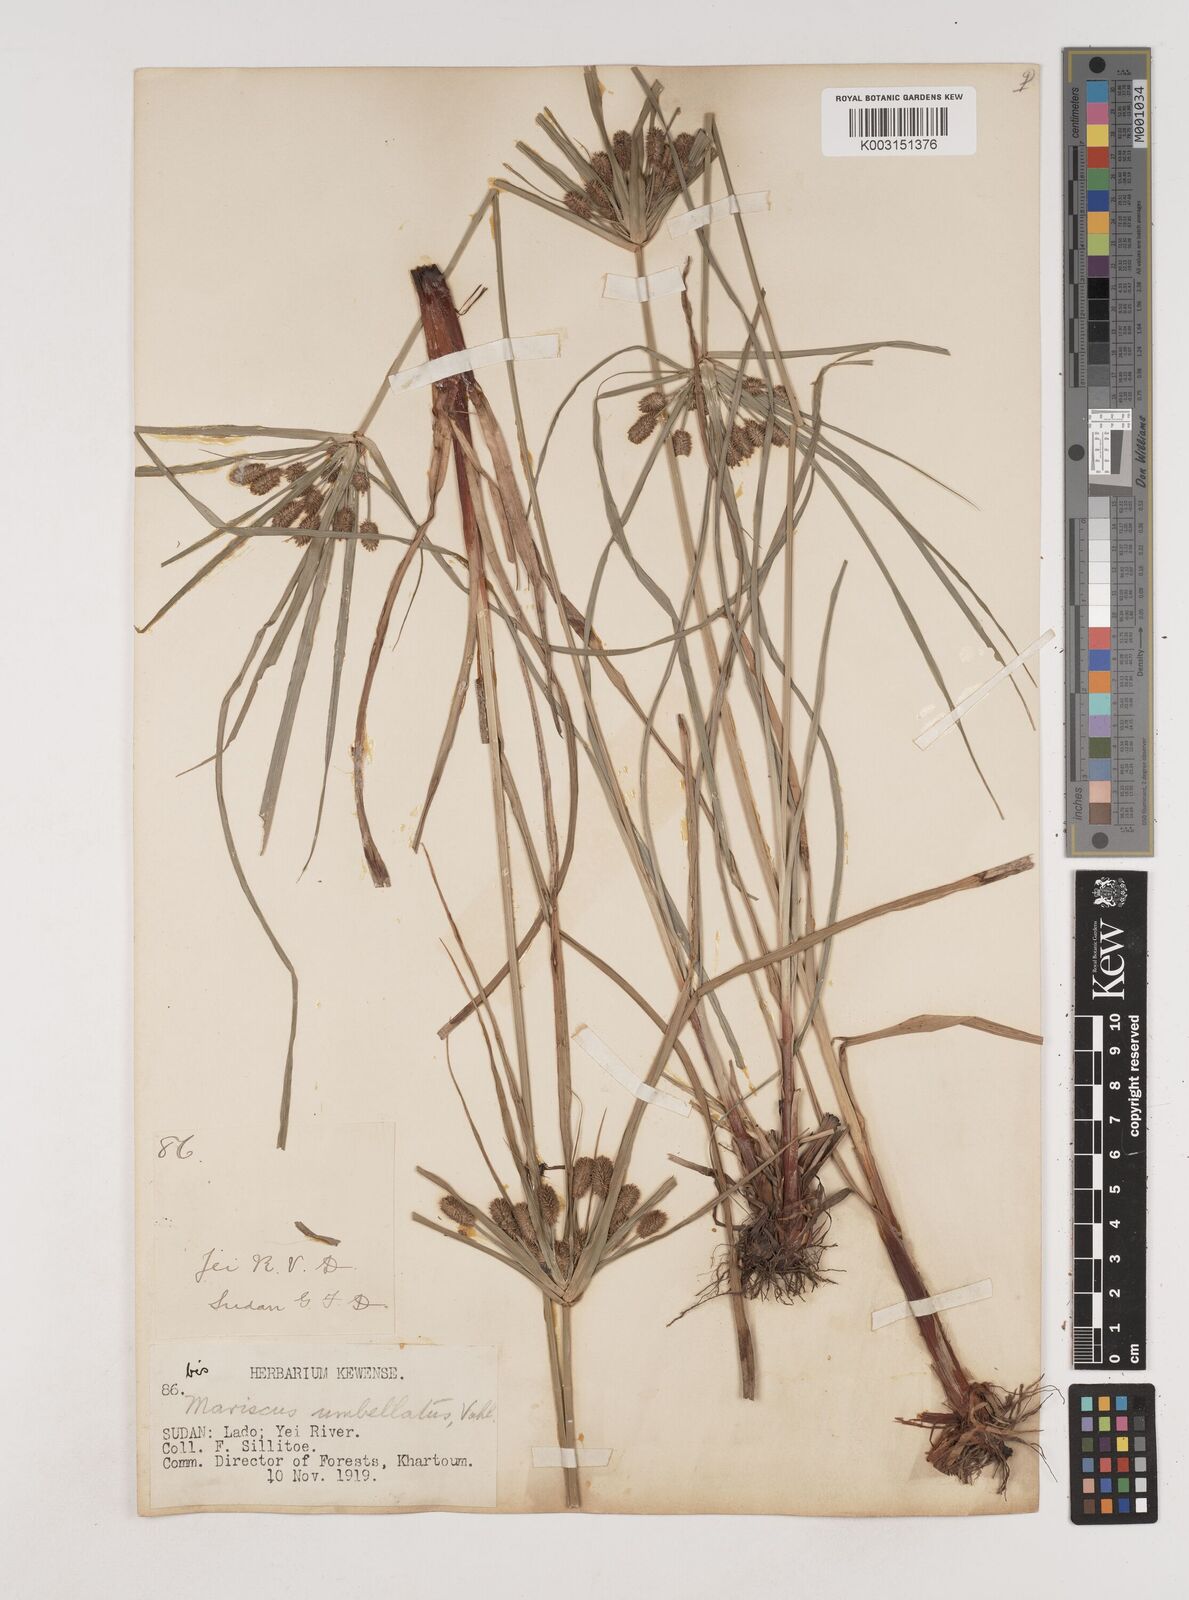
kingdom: Plantae
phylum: Tracheophyta
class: Liliopsida
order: Poales
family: Cyperaceae
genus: Cyperus
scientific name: Cyperus cyperoides
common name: Pacific island flat sedge
